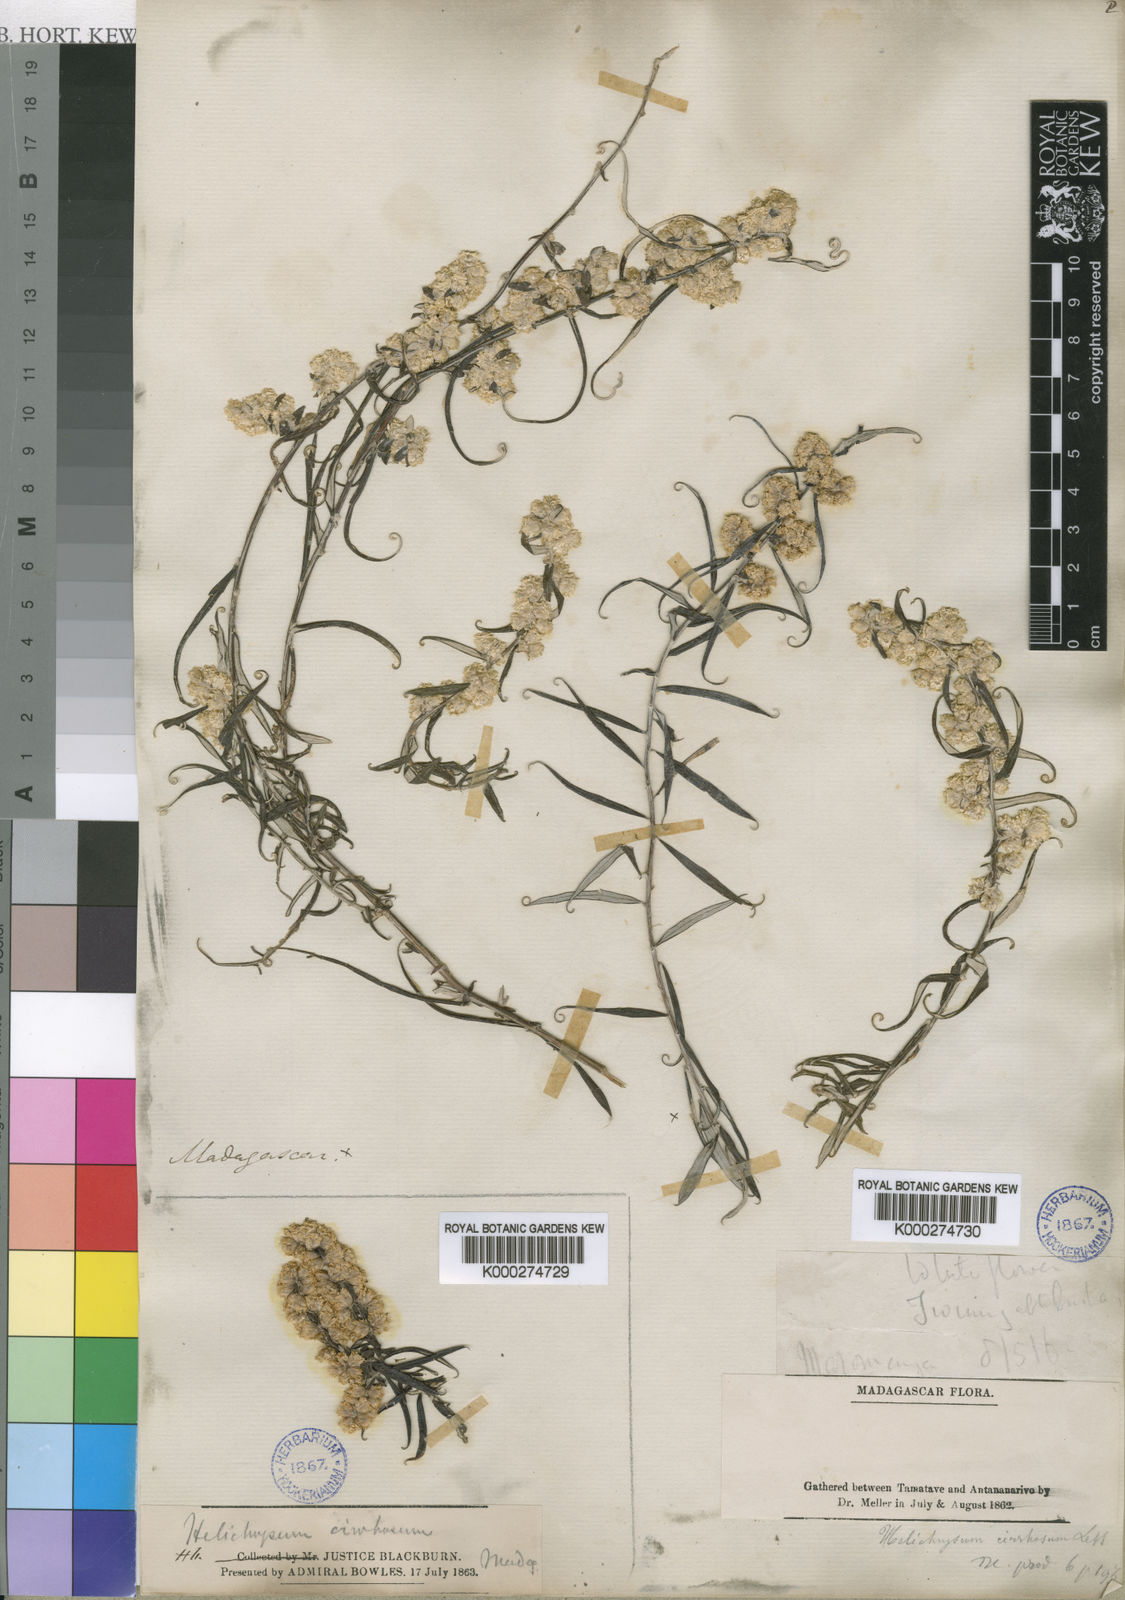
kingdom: Plantae
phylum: Tracheophyta
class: Magnoliopsida
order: Asterales
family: Asteraceae
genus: Helichrysum
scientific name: Helichrysum
